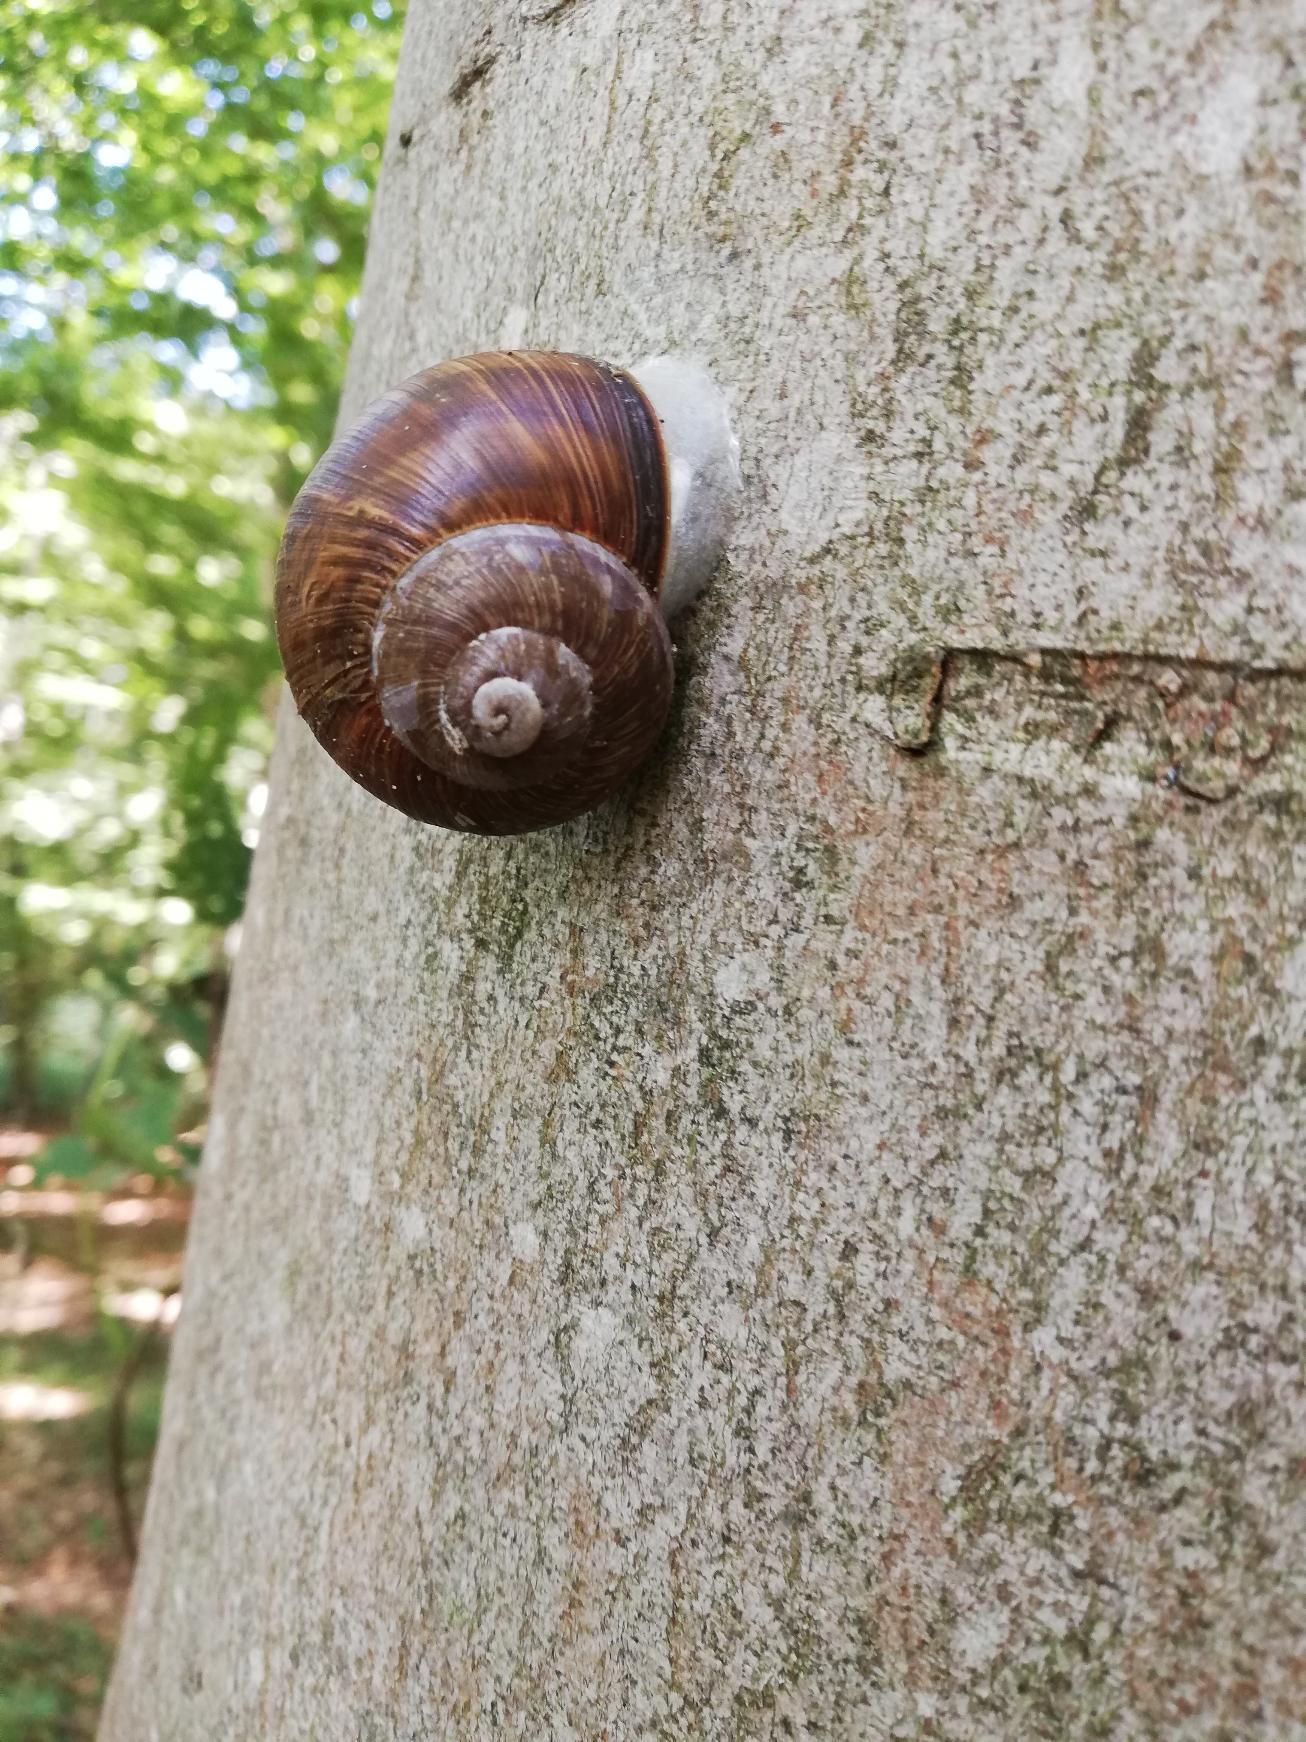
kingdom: Animalia
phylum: Mollusca
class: Gastropoda
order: Stylommatophora
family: Helicidae
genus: Helix
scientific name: Helix pomatia
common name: Vinbjergsnegl
